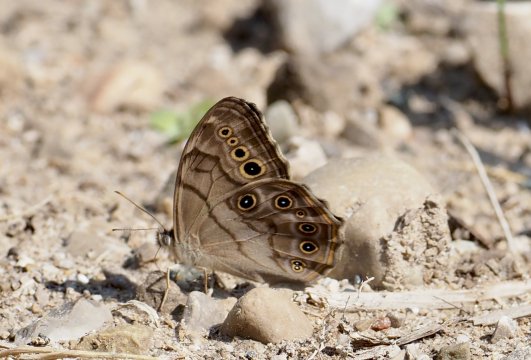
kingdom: Animalia
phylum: Arthropoda
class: Insecta
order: Lepidoptera
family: Nymphalidae
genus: Lethe
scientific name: Lethe anthedon
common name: Northern Pearly-Eye
